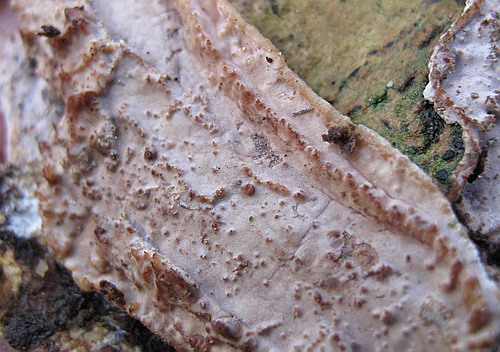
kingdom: Fungi
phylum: Basidiomycota
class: Agaricomycetes
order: Auriculariales
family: Auriculariaceae
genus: Heteroradulum
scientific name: Heteroradulum deglubens
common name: bævreskorpe
